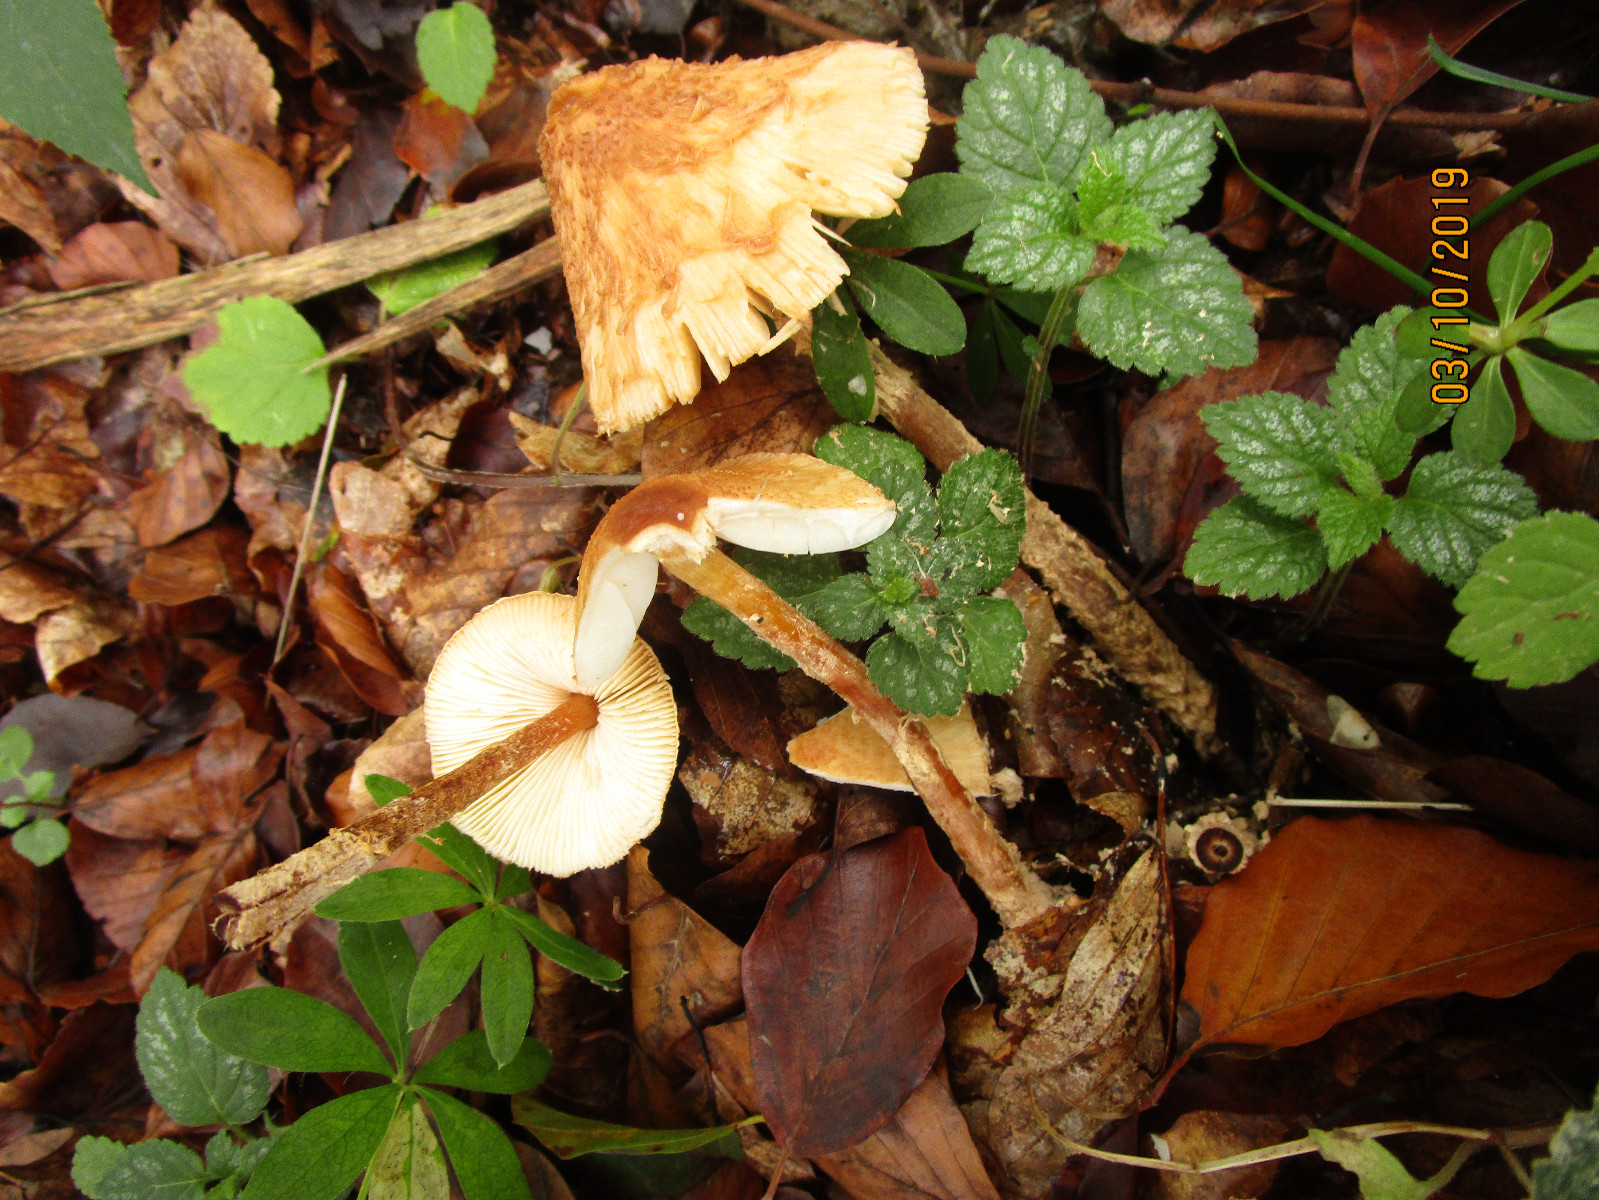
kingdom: Fungi
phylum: Basidiomycota
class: Agaricomycetes
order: Agaricales
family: Agaricaceae
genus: Leucocoprinus
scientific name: Leucocoprinus straminellus
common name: rustbrun parasolhat
